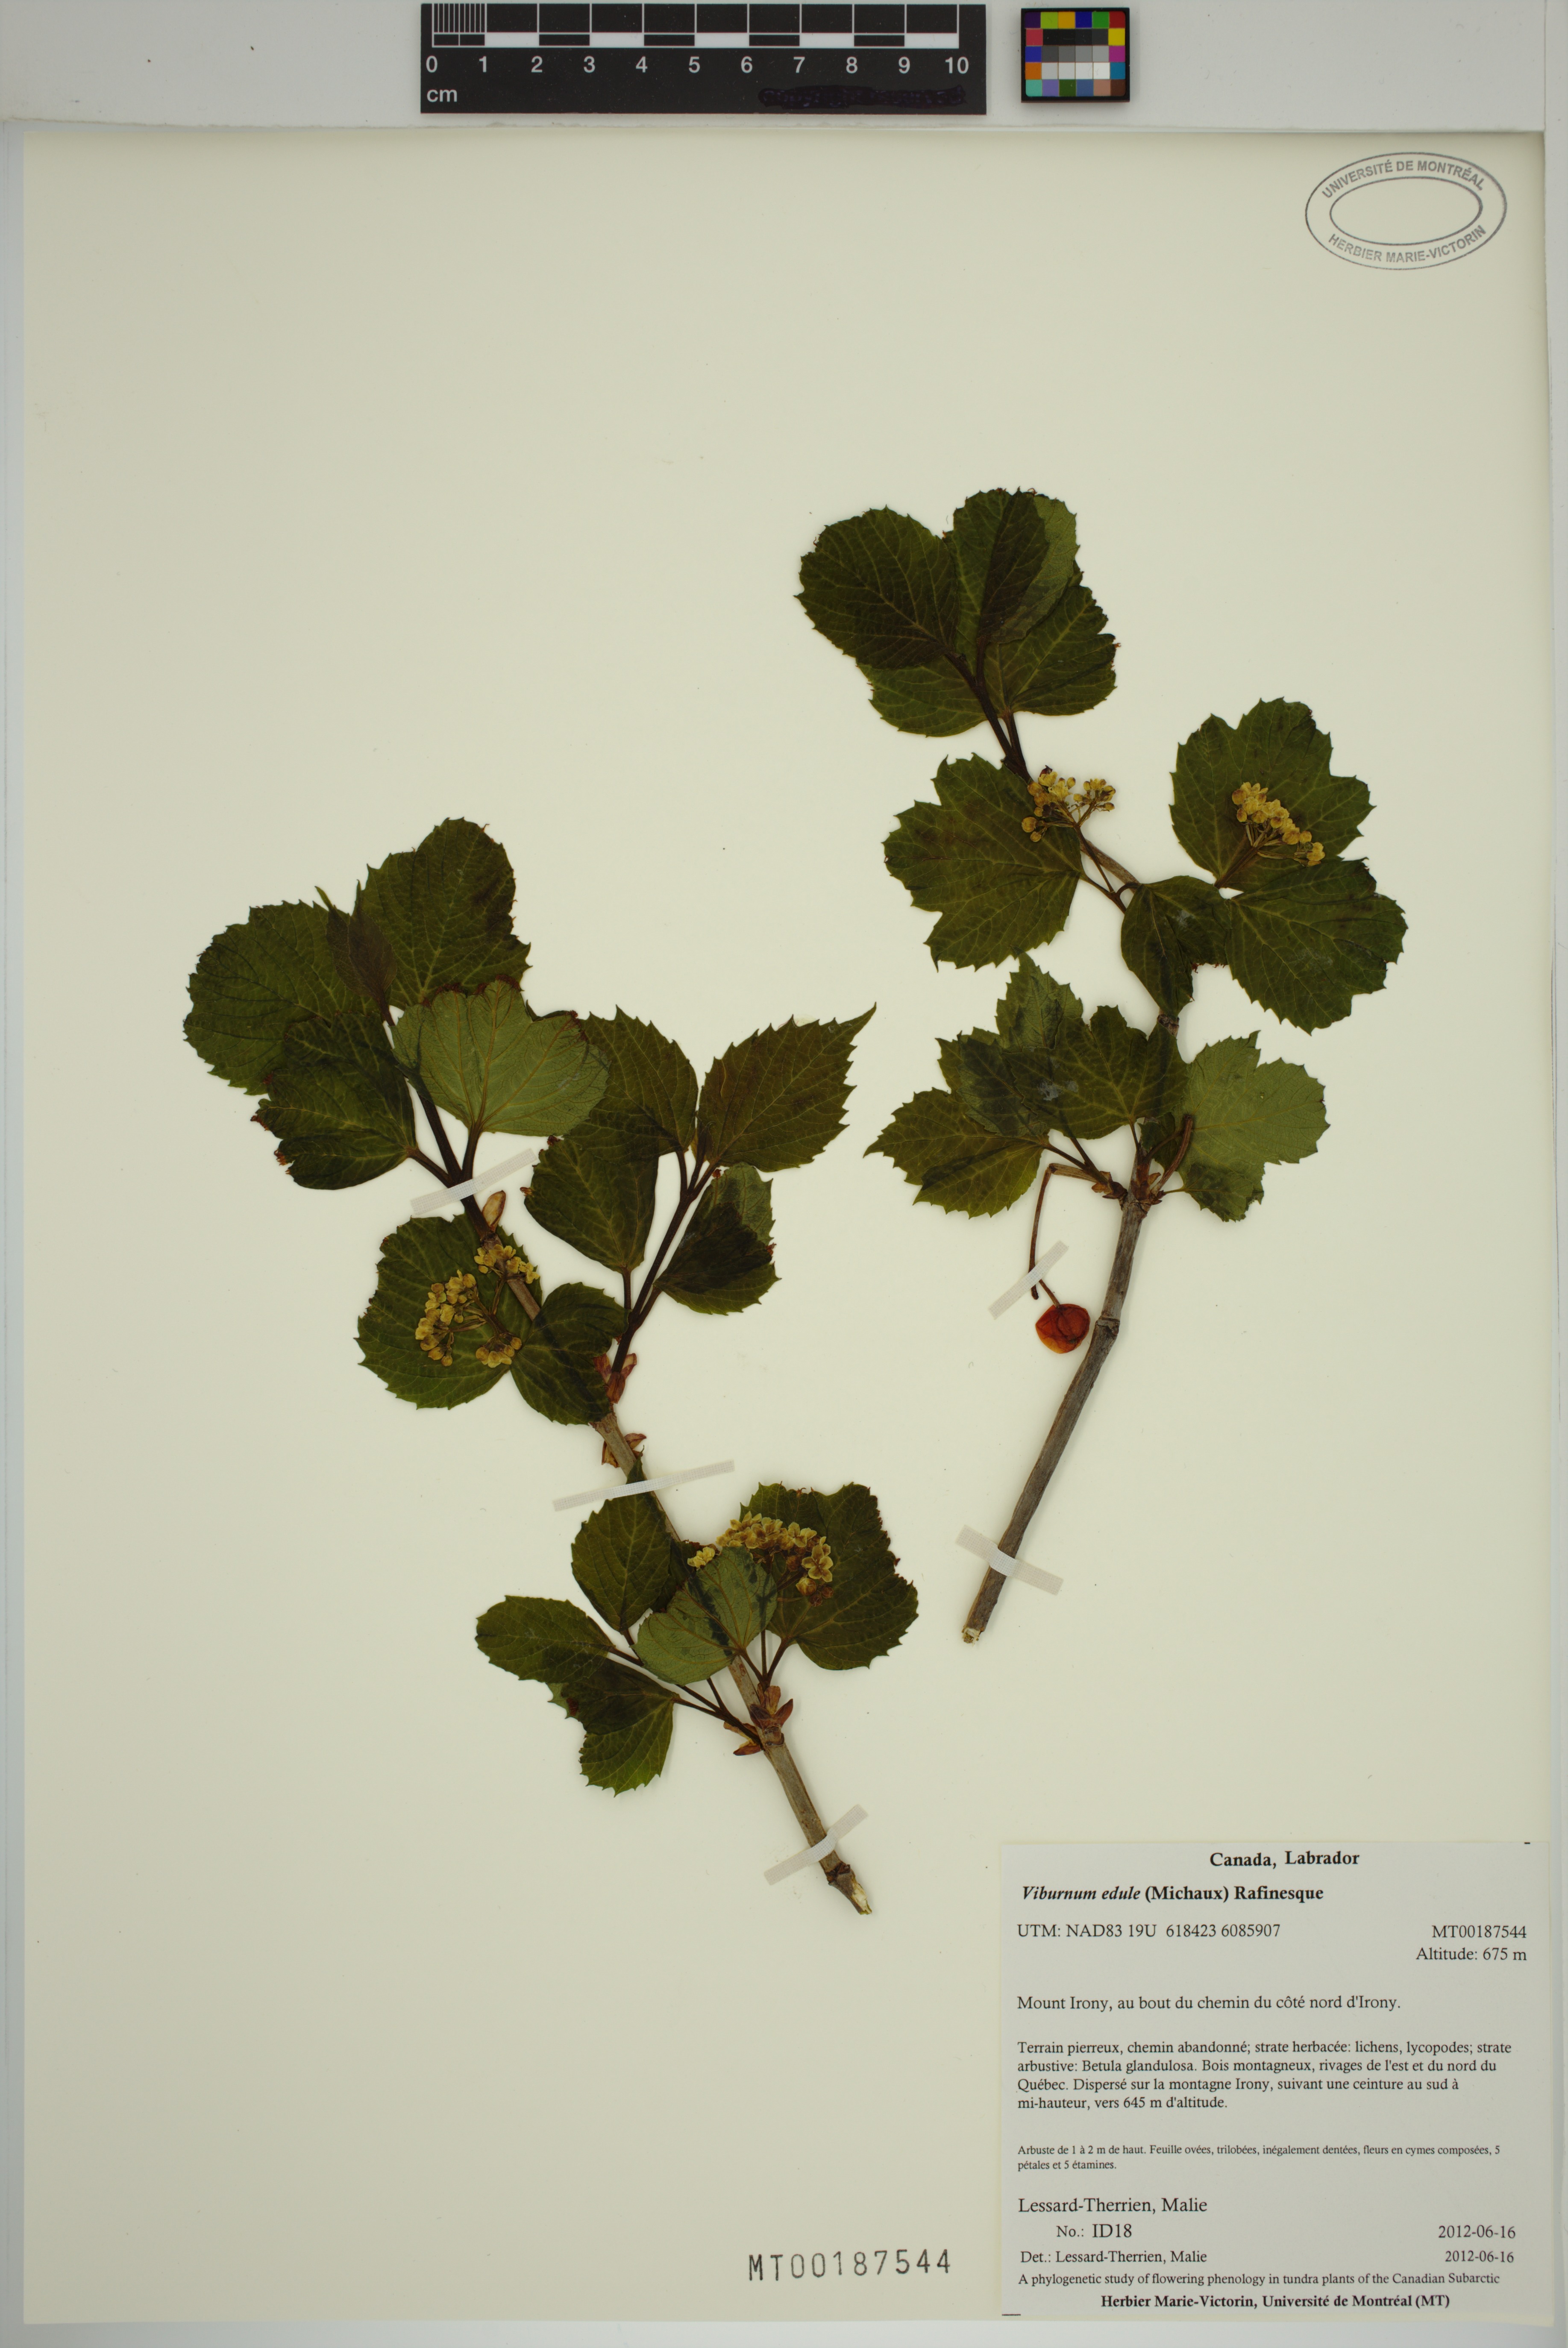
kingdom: Plantae
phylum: Tracheophyta
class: Magnoliopsida
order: Dipsacales
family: Viburnaceae
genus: Viburnum
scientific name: Viburnum edule
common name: Mooseberry
